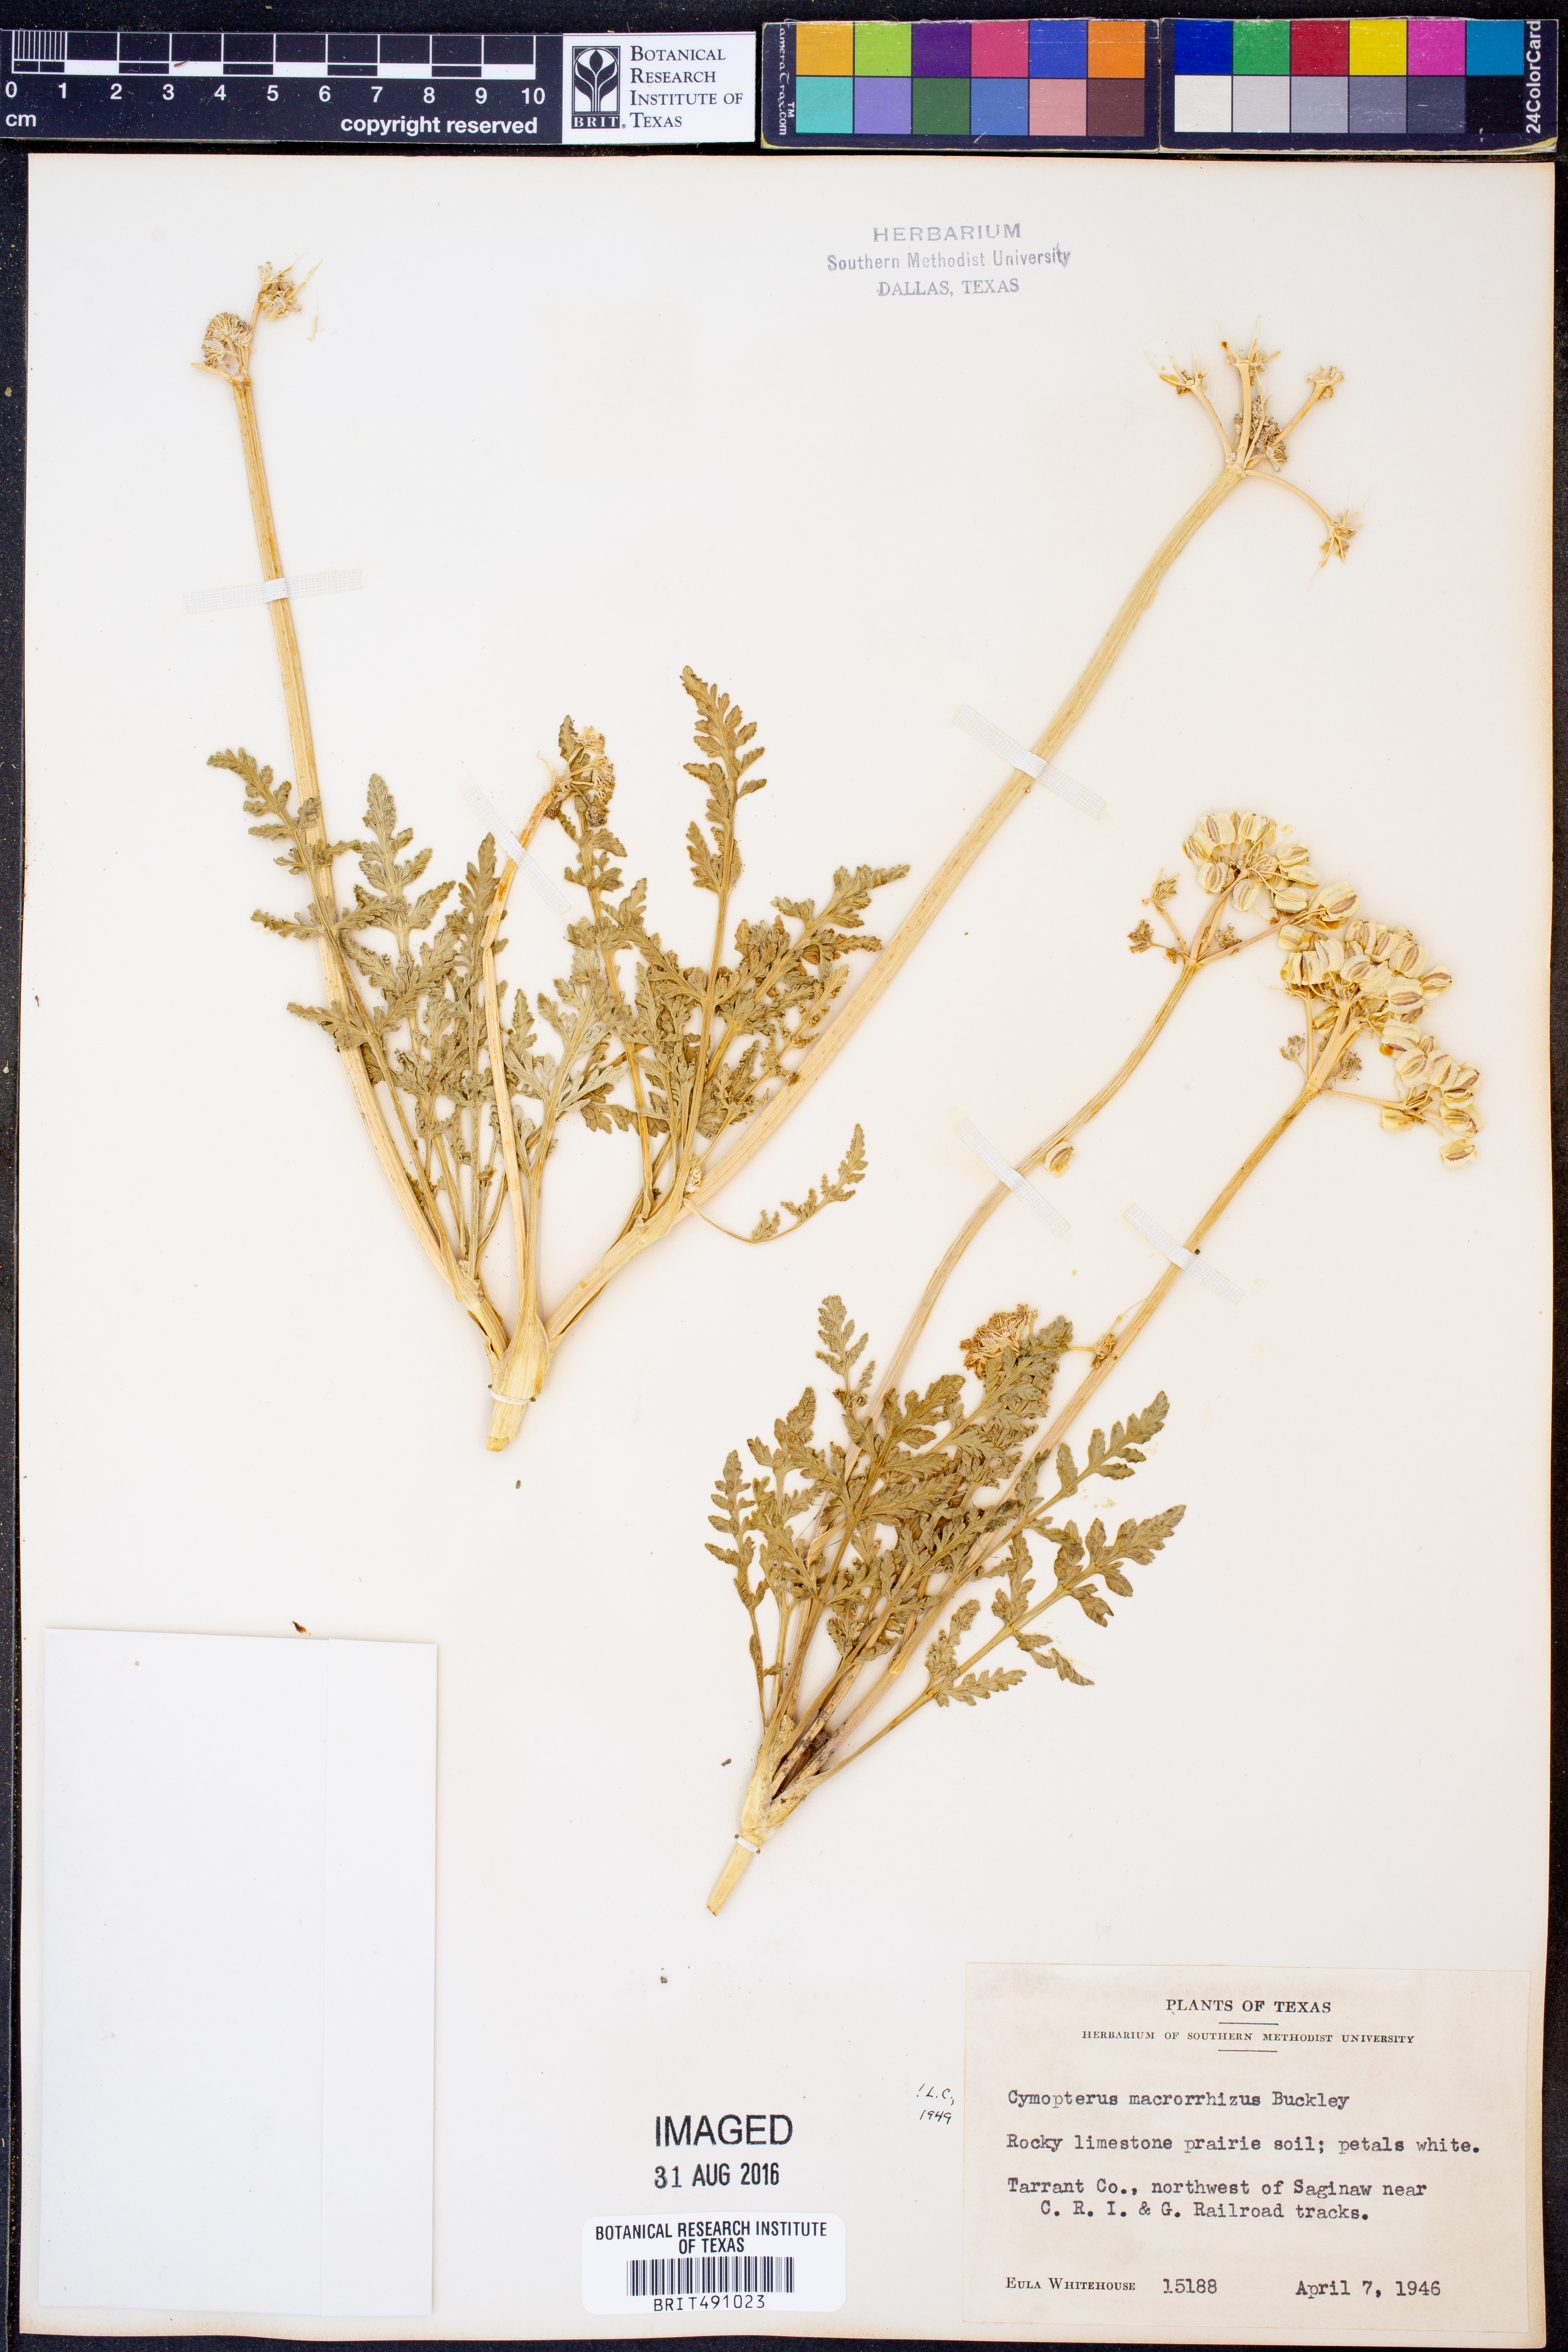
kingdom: Plantae
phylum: Tracheophyta
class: Magnoliopsida
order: Apiales
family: Apiaceae
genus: Vesper
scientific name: Vesper macrorhizus
